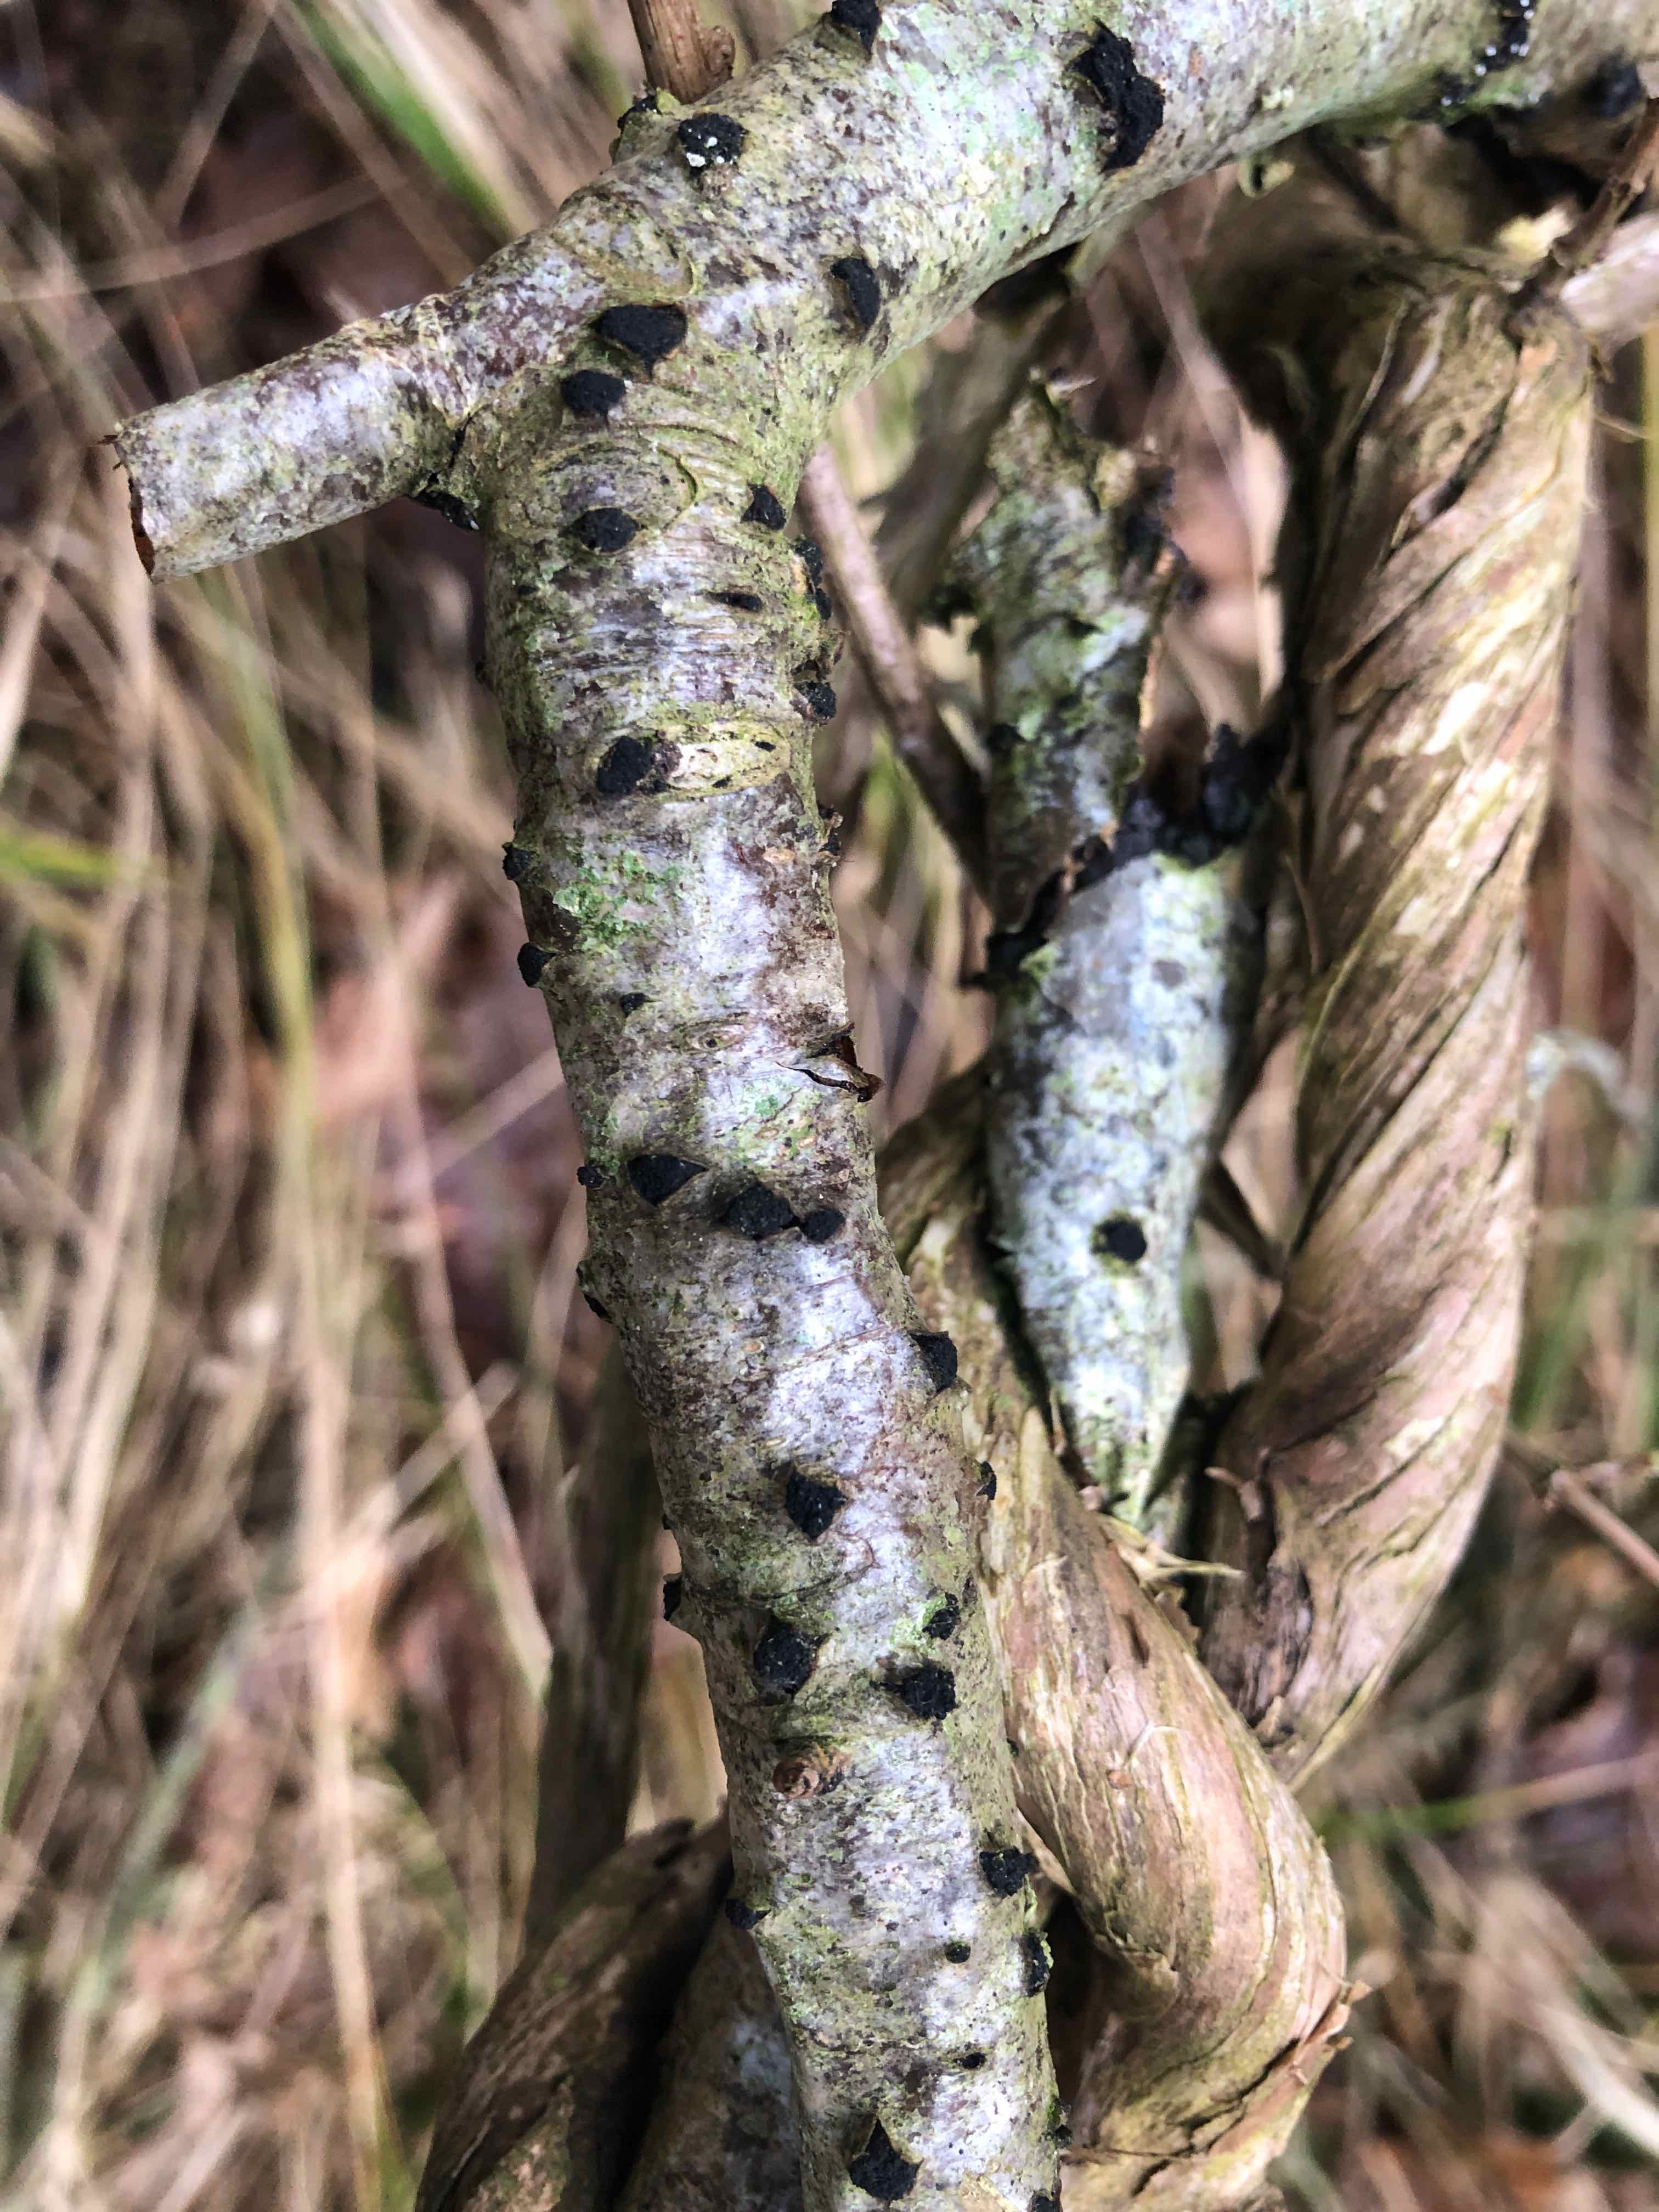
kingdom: Fungi
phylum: Ascomycota
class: Sordariomycetes
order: Xylariales
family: Diatrypaceae
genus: Eutypella
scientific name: Eutypella sorbi
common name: rønne-kulskorpe
